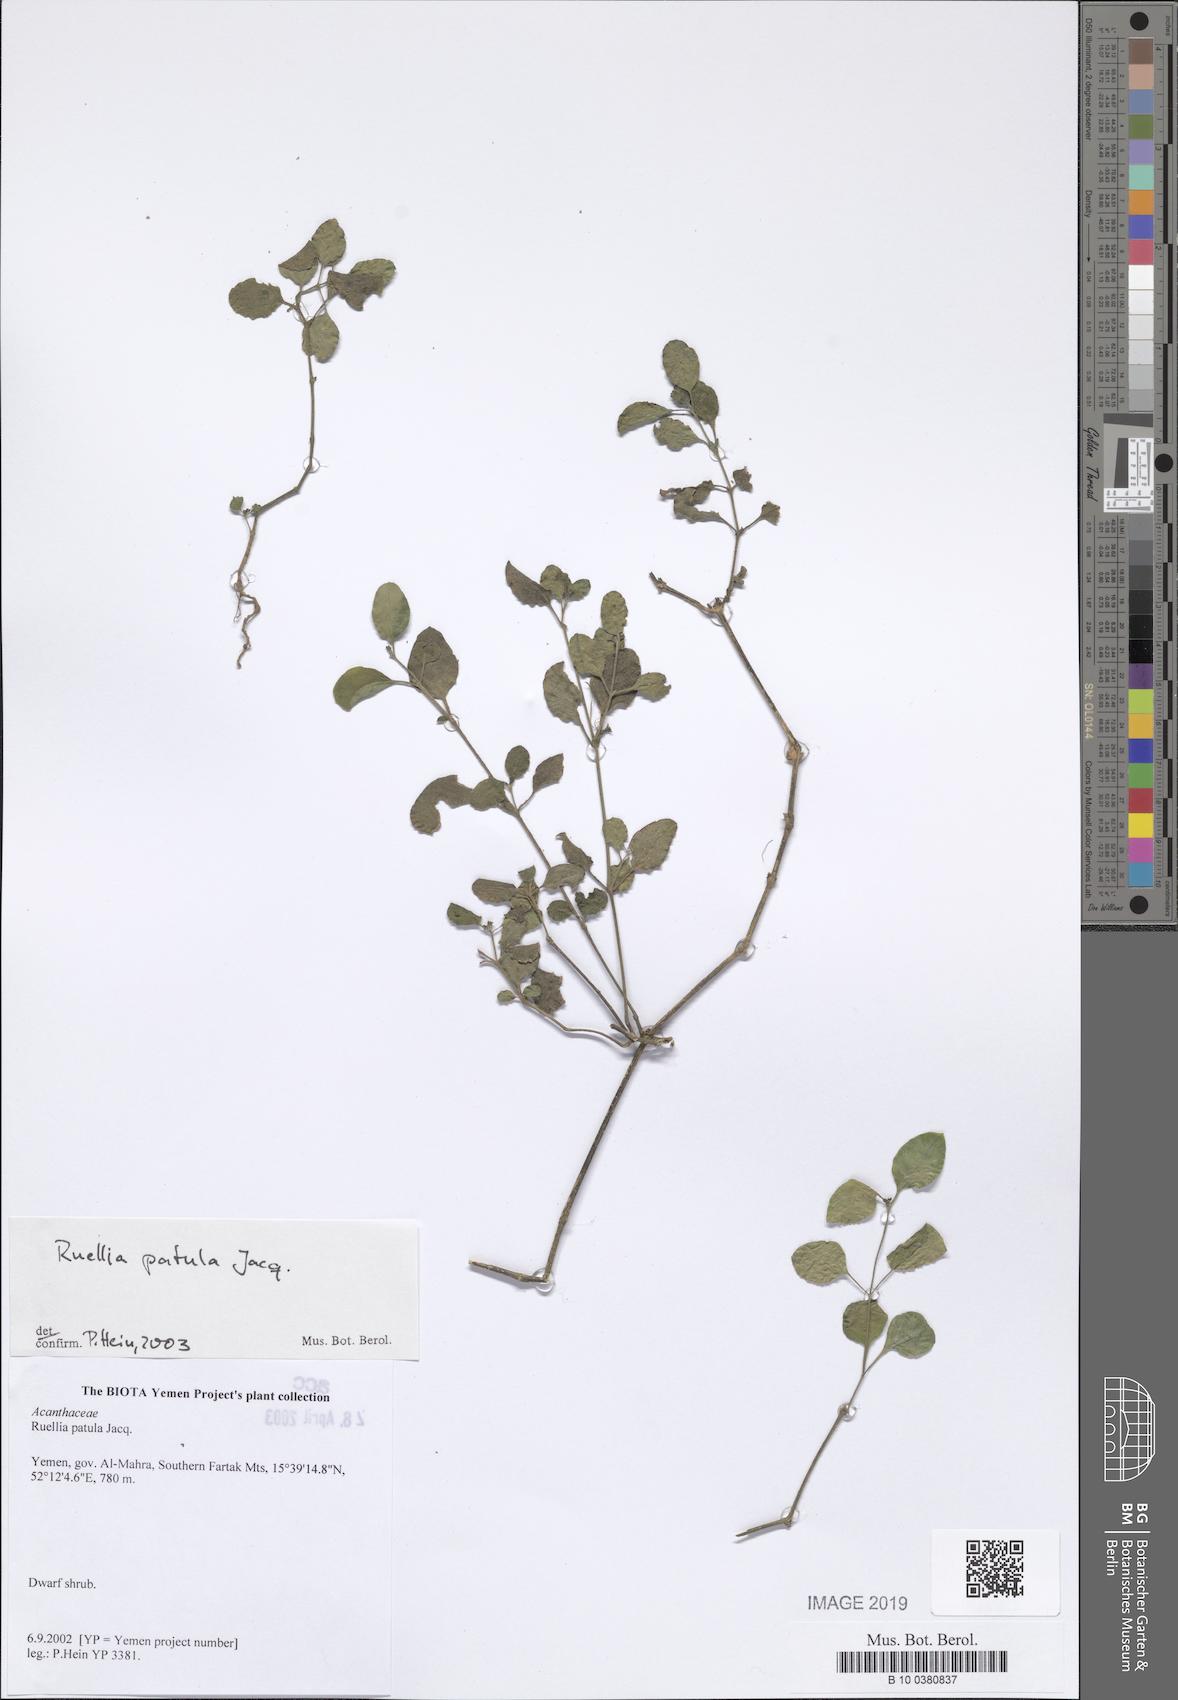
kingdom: Plantae
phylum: Tracheophyta
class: Magnoliopsida
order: Lamiales
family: Acanthaceae
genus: Ruellia
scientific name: Ruellia patula
